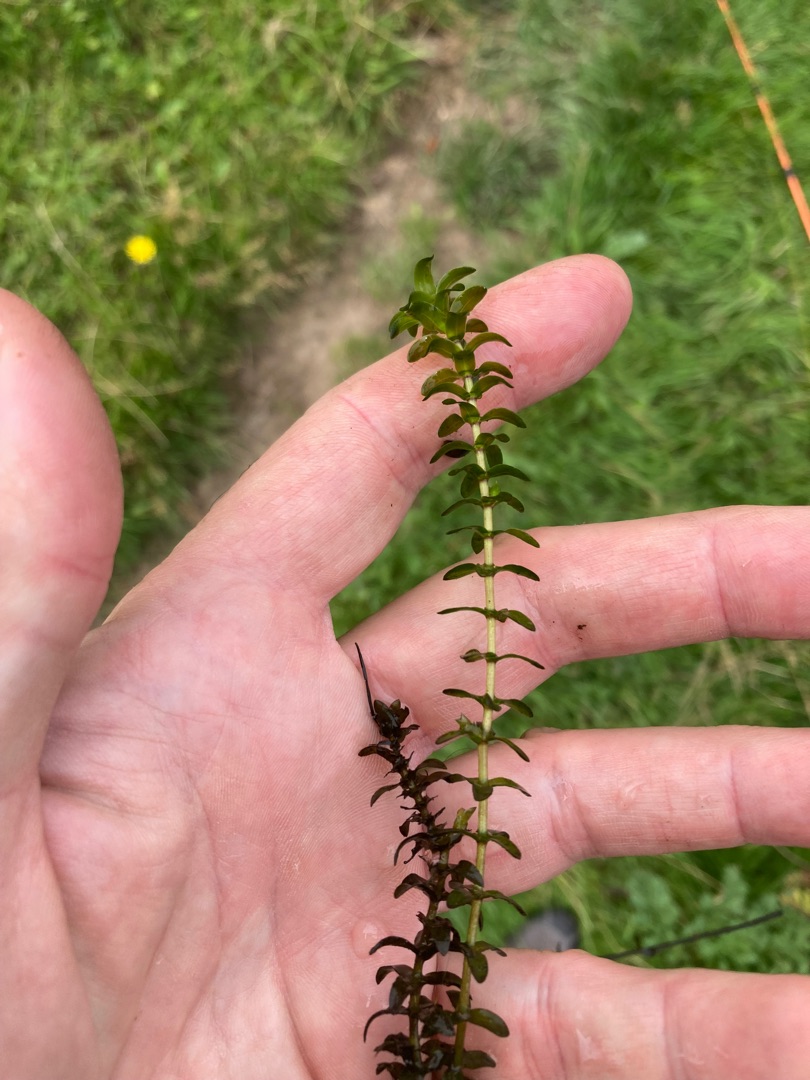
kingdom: Plantae
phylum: Tracheophyta
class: Liliopsida
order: Alismatales
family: Hydrocharitaceae
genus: Elodea
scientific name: Elodea canadensis
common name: Vandpest
